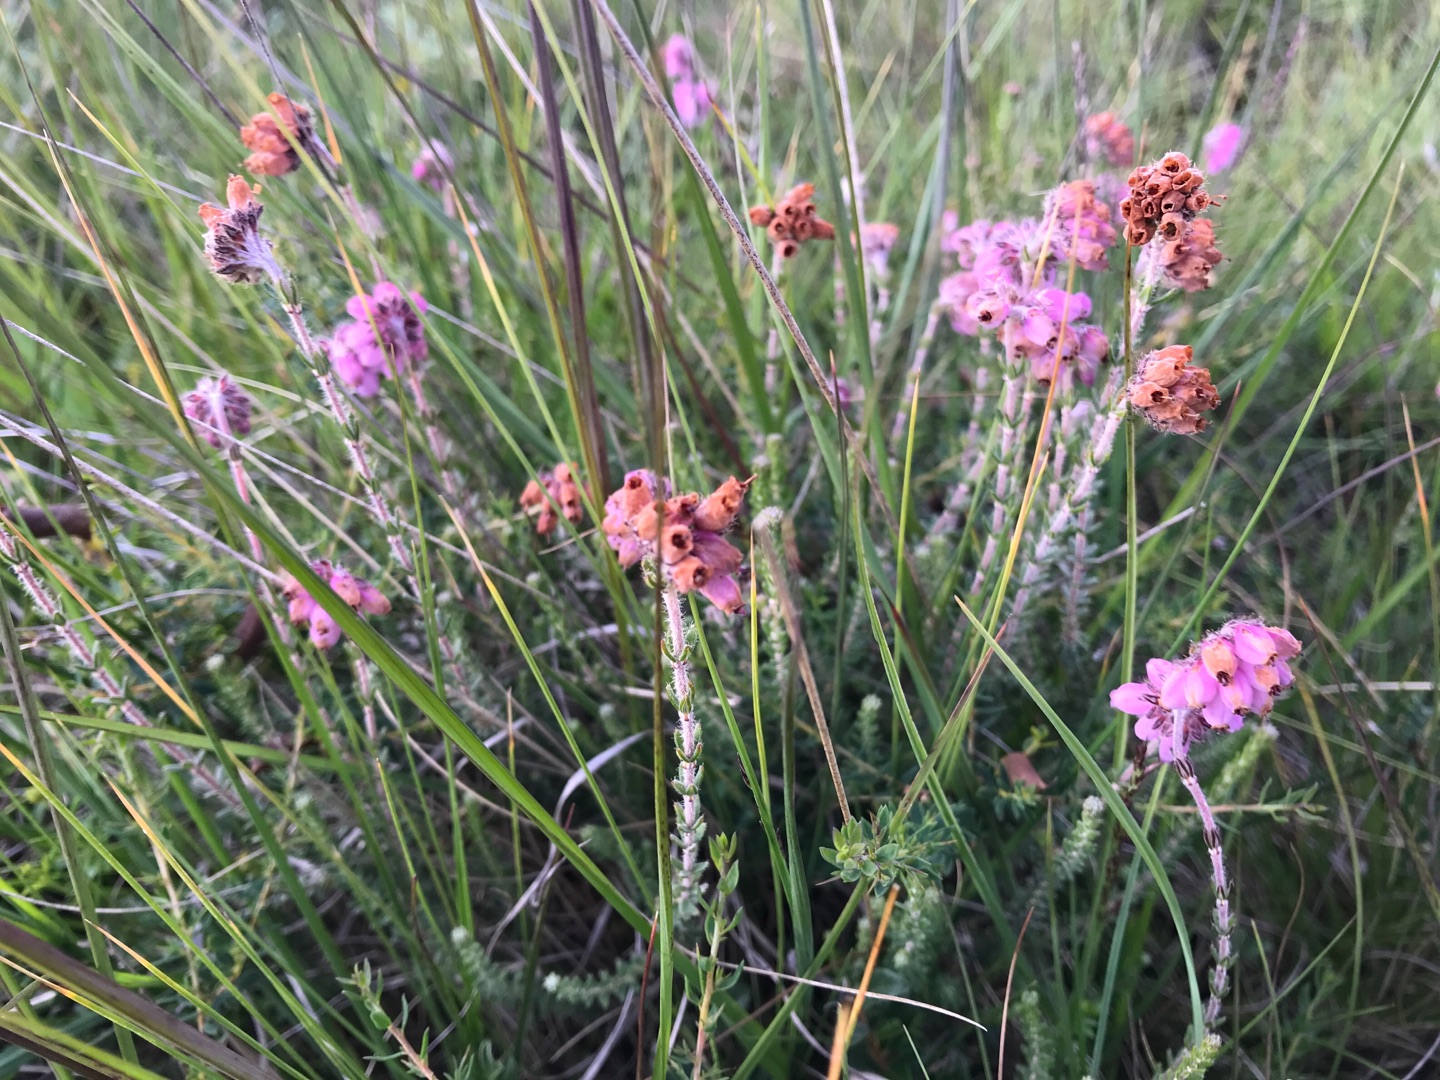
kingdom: Plantae
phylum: Tracheophyta
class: Magnoliopsida
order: Ericales
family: Ericaceae
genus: Erica
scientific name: Erica tetralix
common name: Klokkelyng
